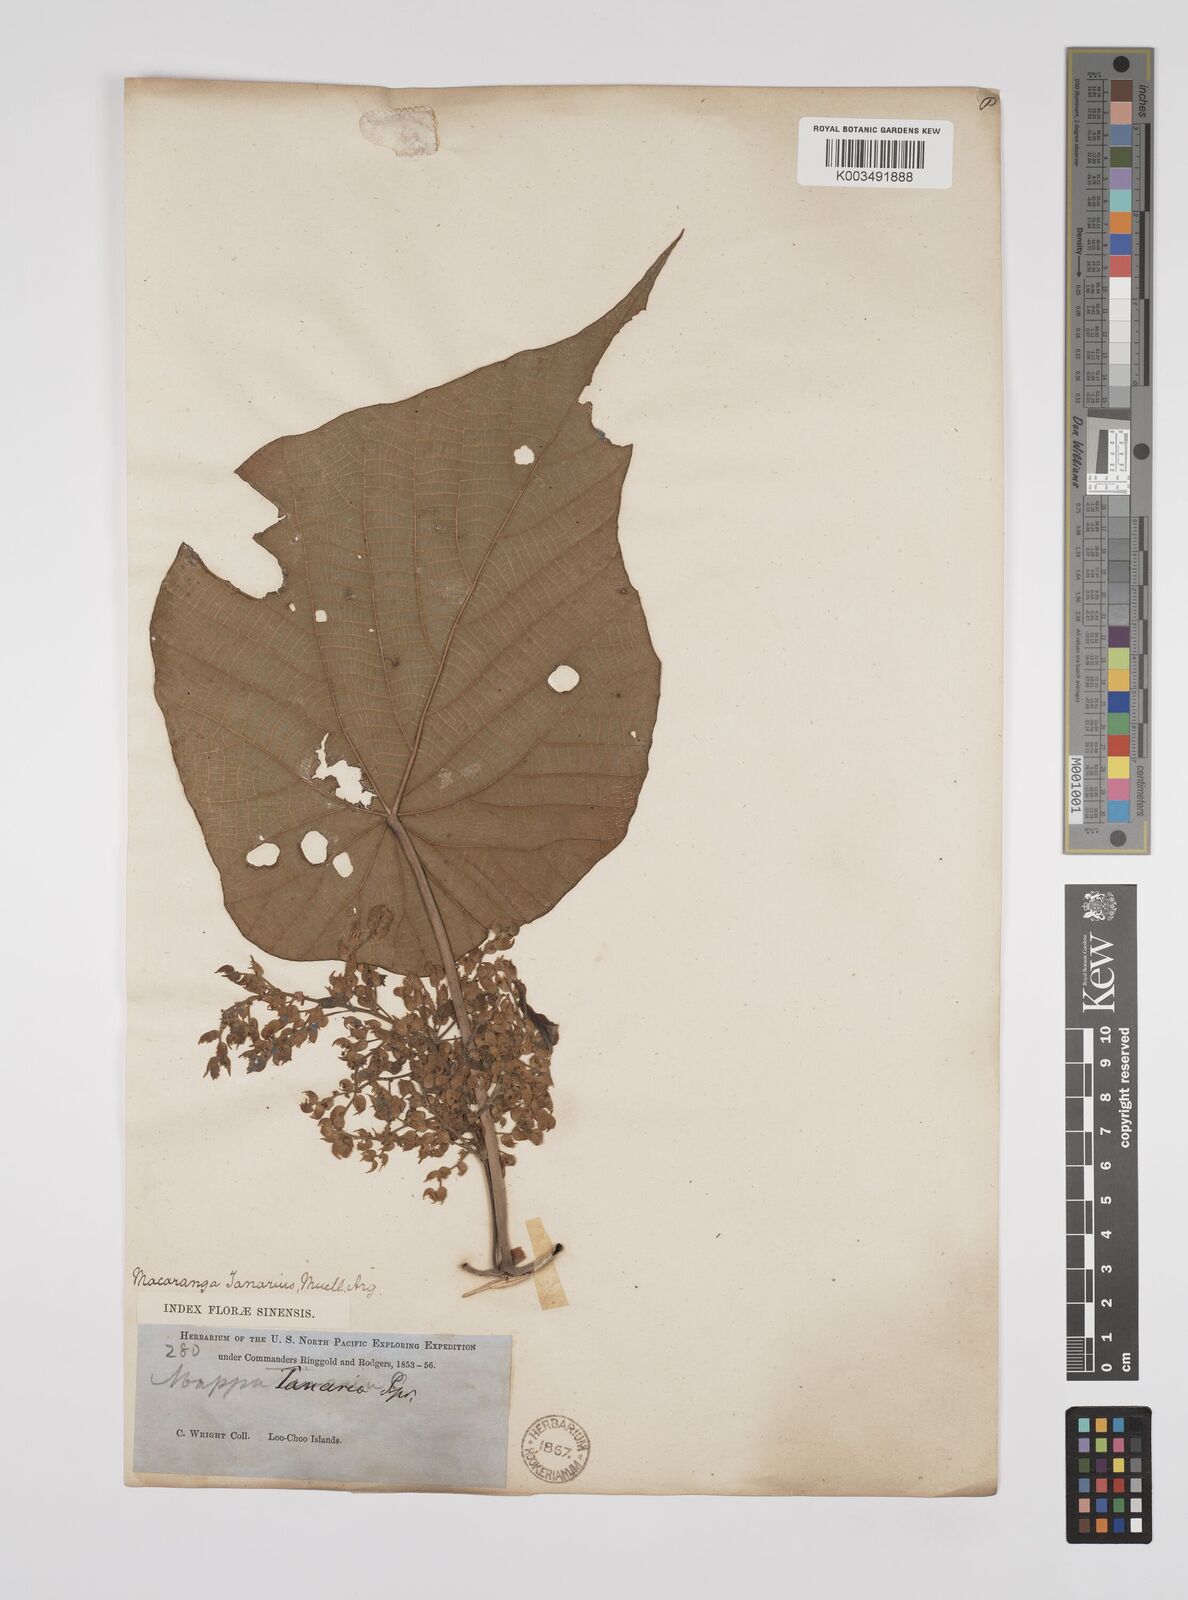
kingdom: Plantae
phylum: Tracheophyta
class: Magnoliopsida
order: Malpighiales
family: Euphorbiaceae
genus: Macaranga
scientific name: Macaranga tanarius
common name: Parasol leaf tree
